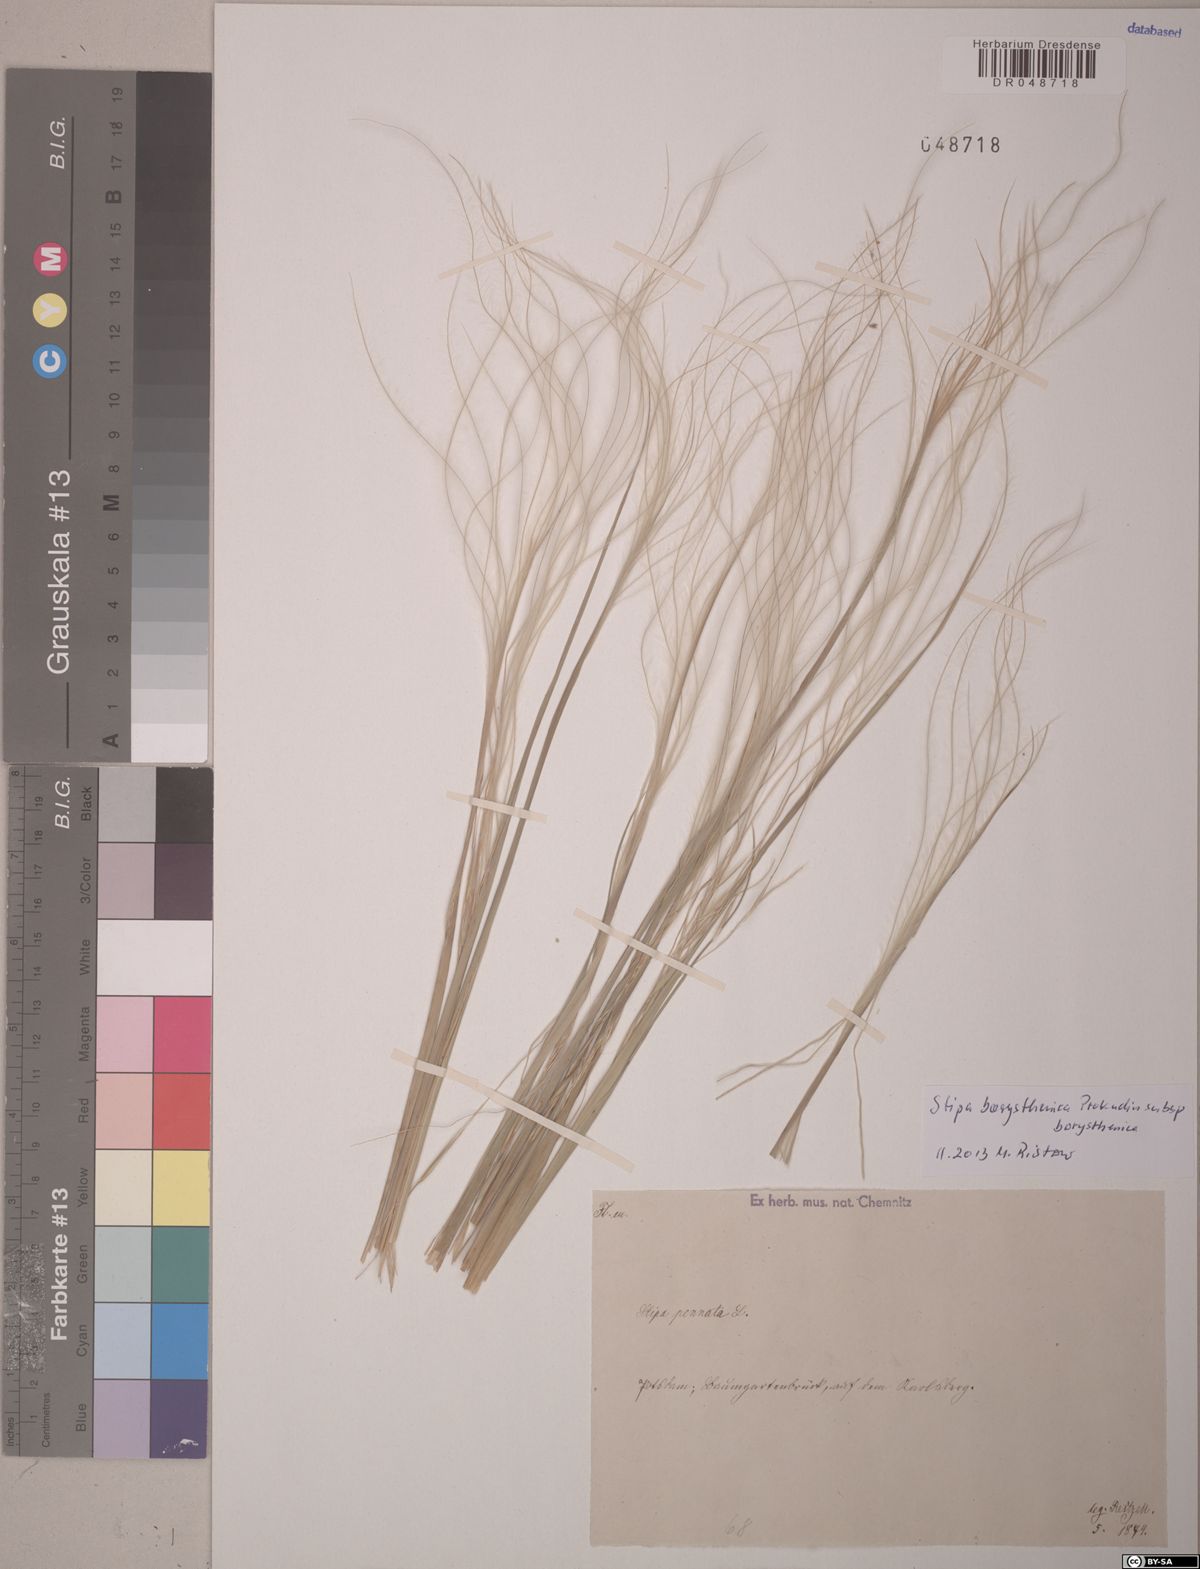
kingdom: Plantae
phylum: Tracheophyta
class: Liliopsida
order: Poales
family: Poaceae
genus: Stipa
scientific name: Stipa borysthenica
